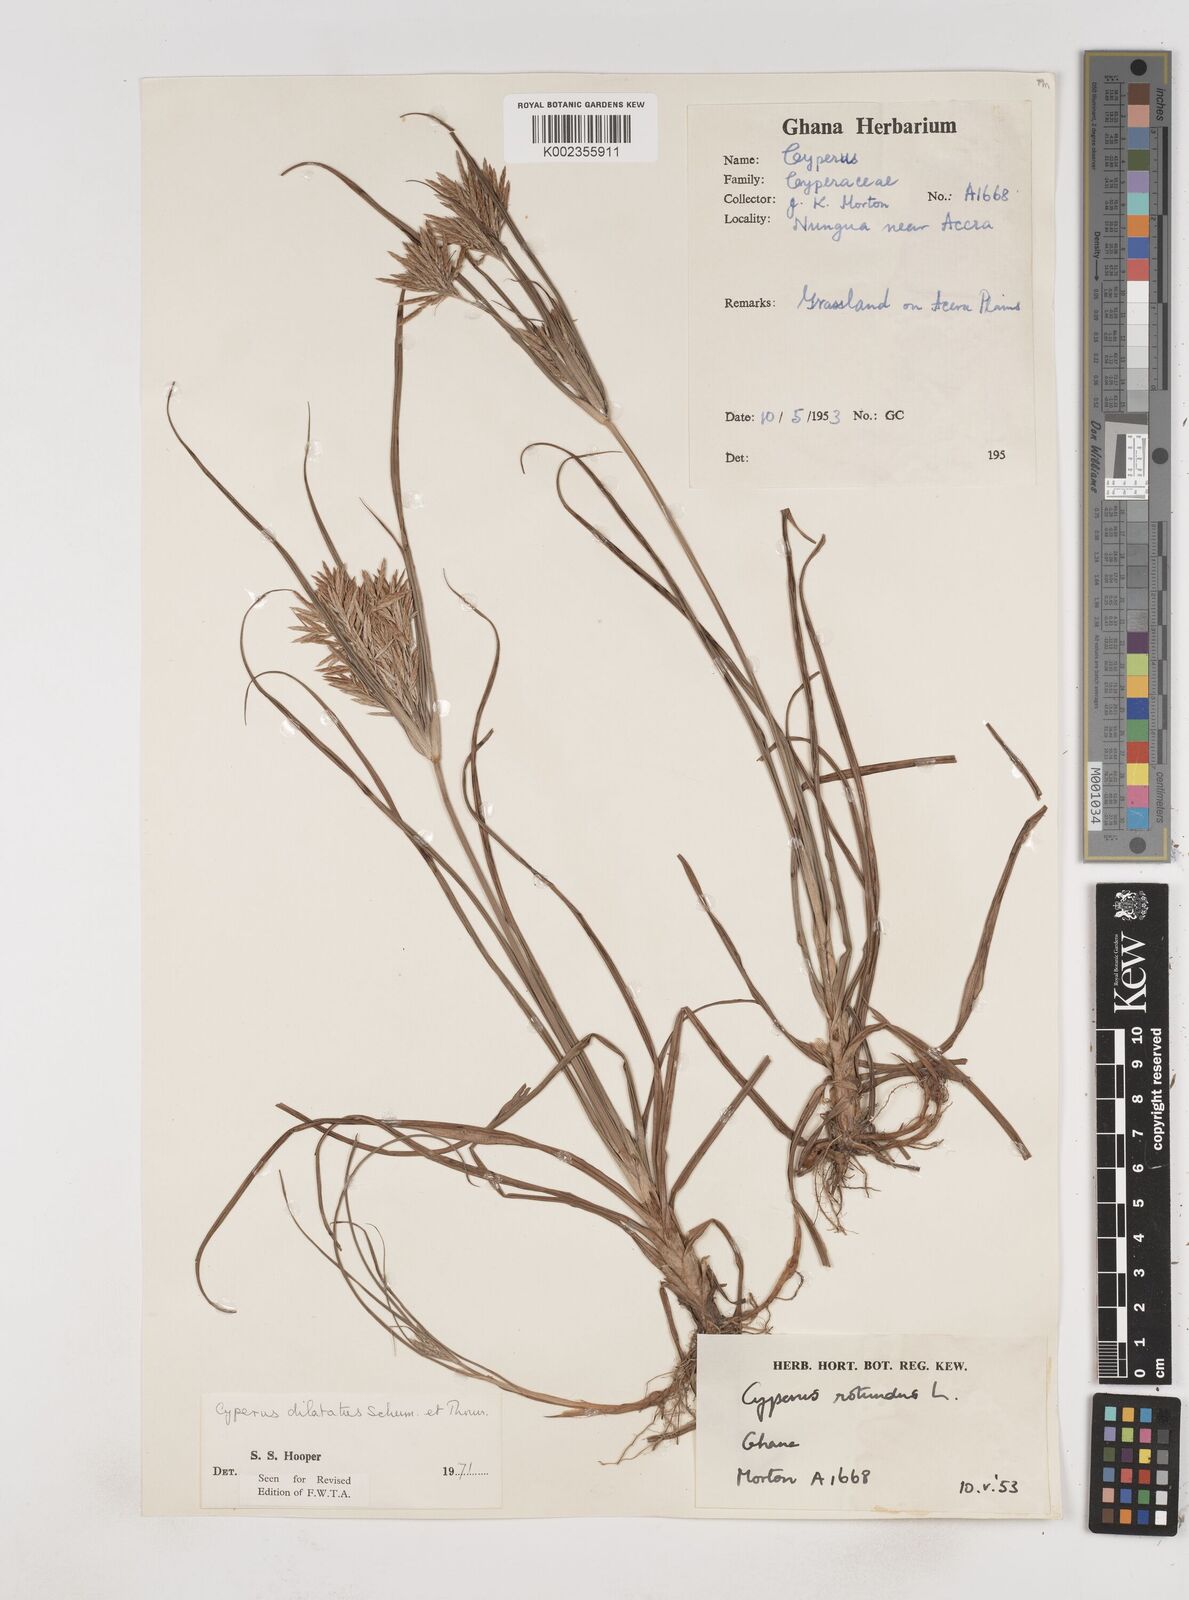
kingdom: Plantae
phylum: Tracheophyta
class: Liliopsida
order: Poales
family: Cyperaceae
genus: Cyperus
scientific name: Cyperus dilatatus
